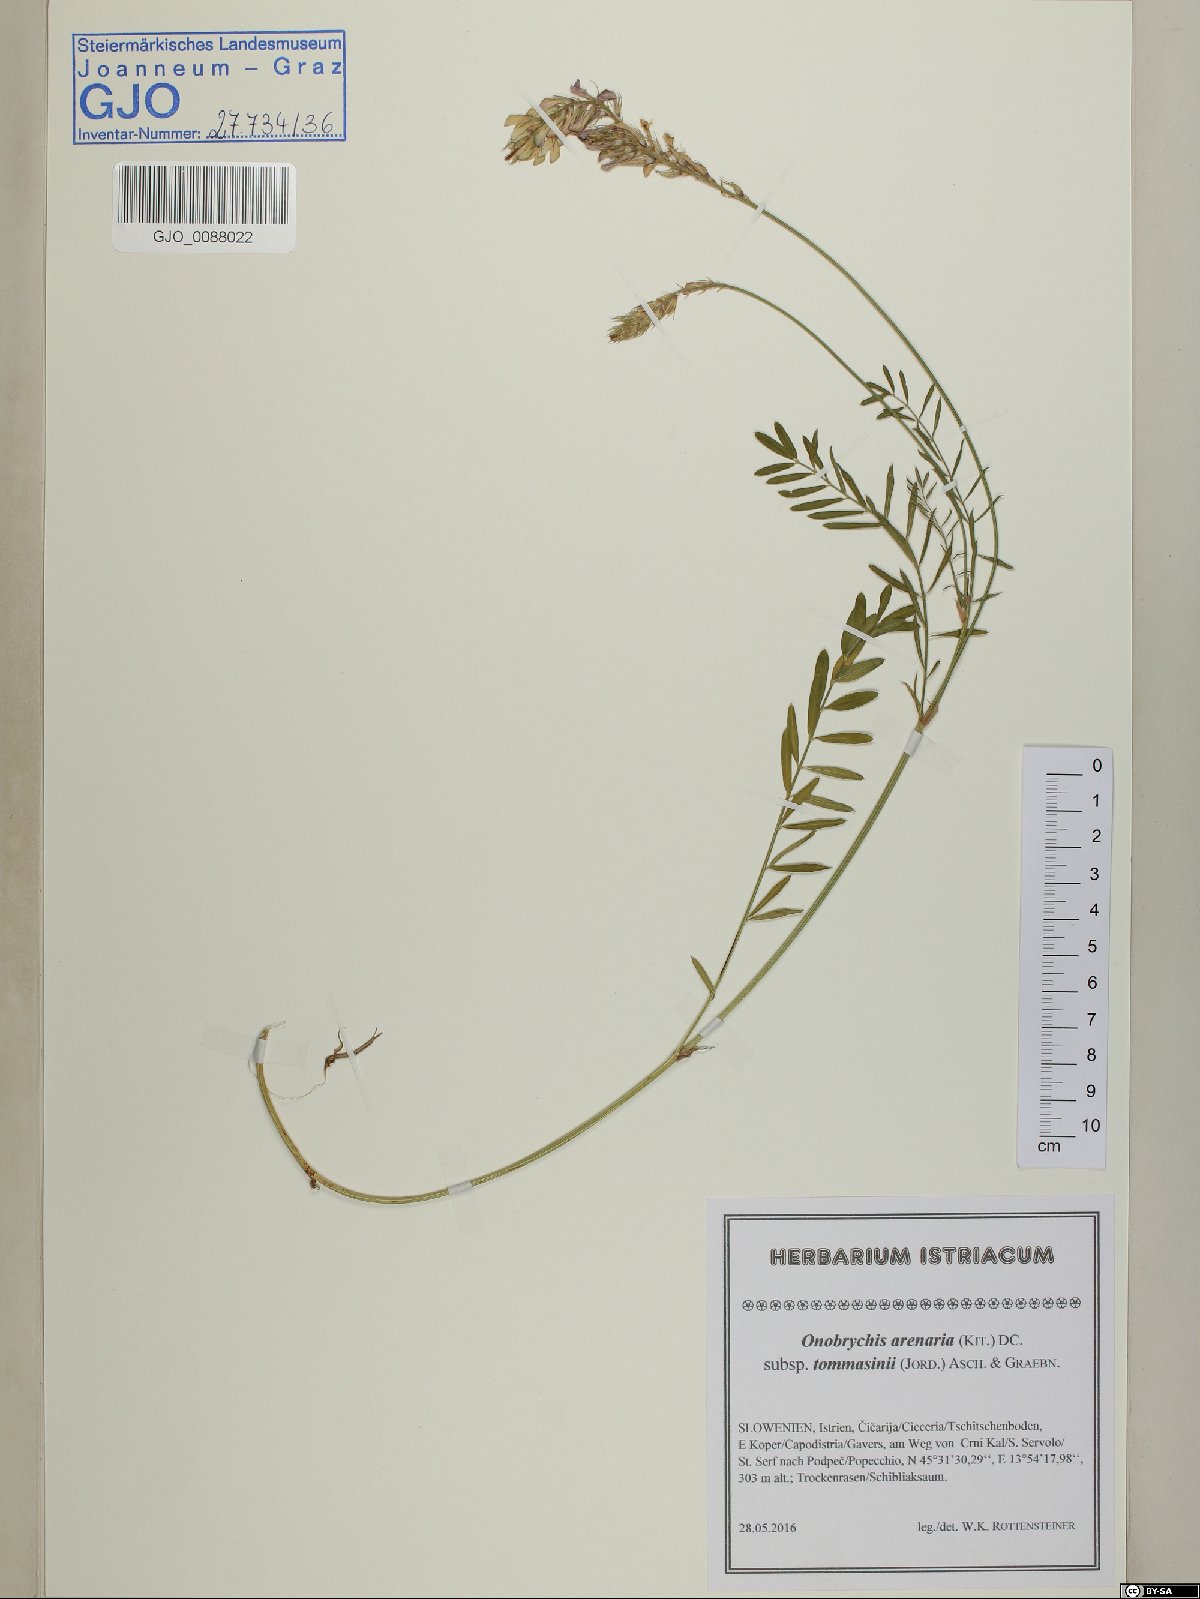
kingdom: Plantae
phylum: Tracheophyta
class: Magnoliopsida
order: Fabales
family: Fabaceae
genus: Onobrychis
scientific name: Onobrychis arenaria
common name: Sand esparcet
